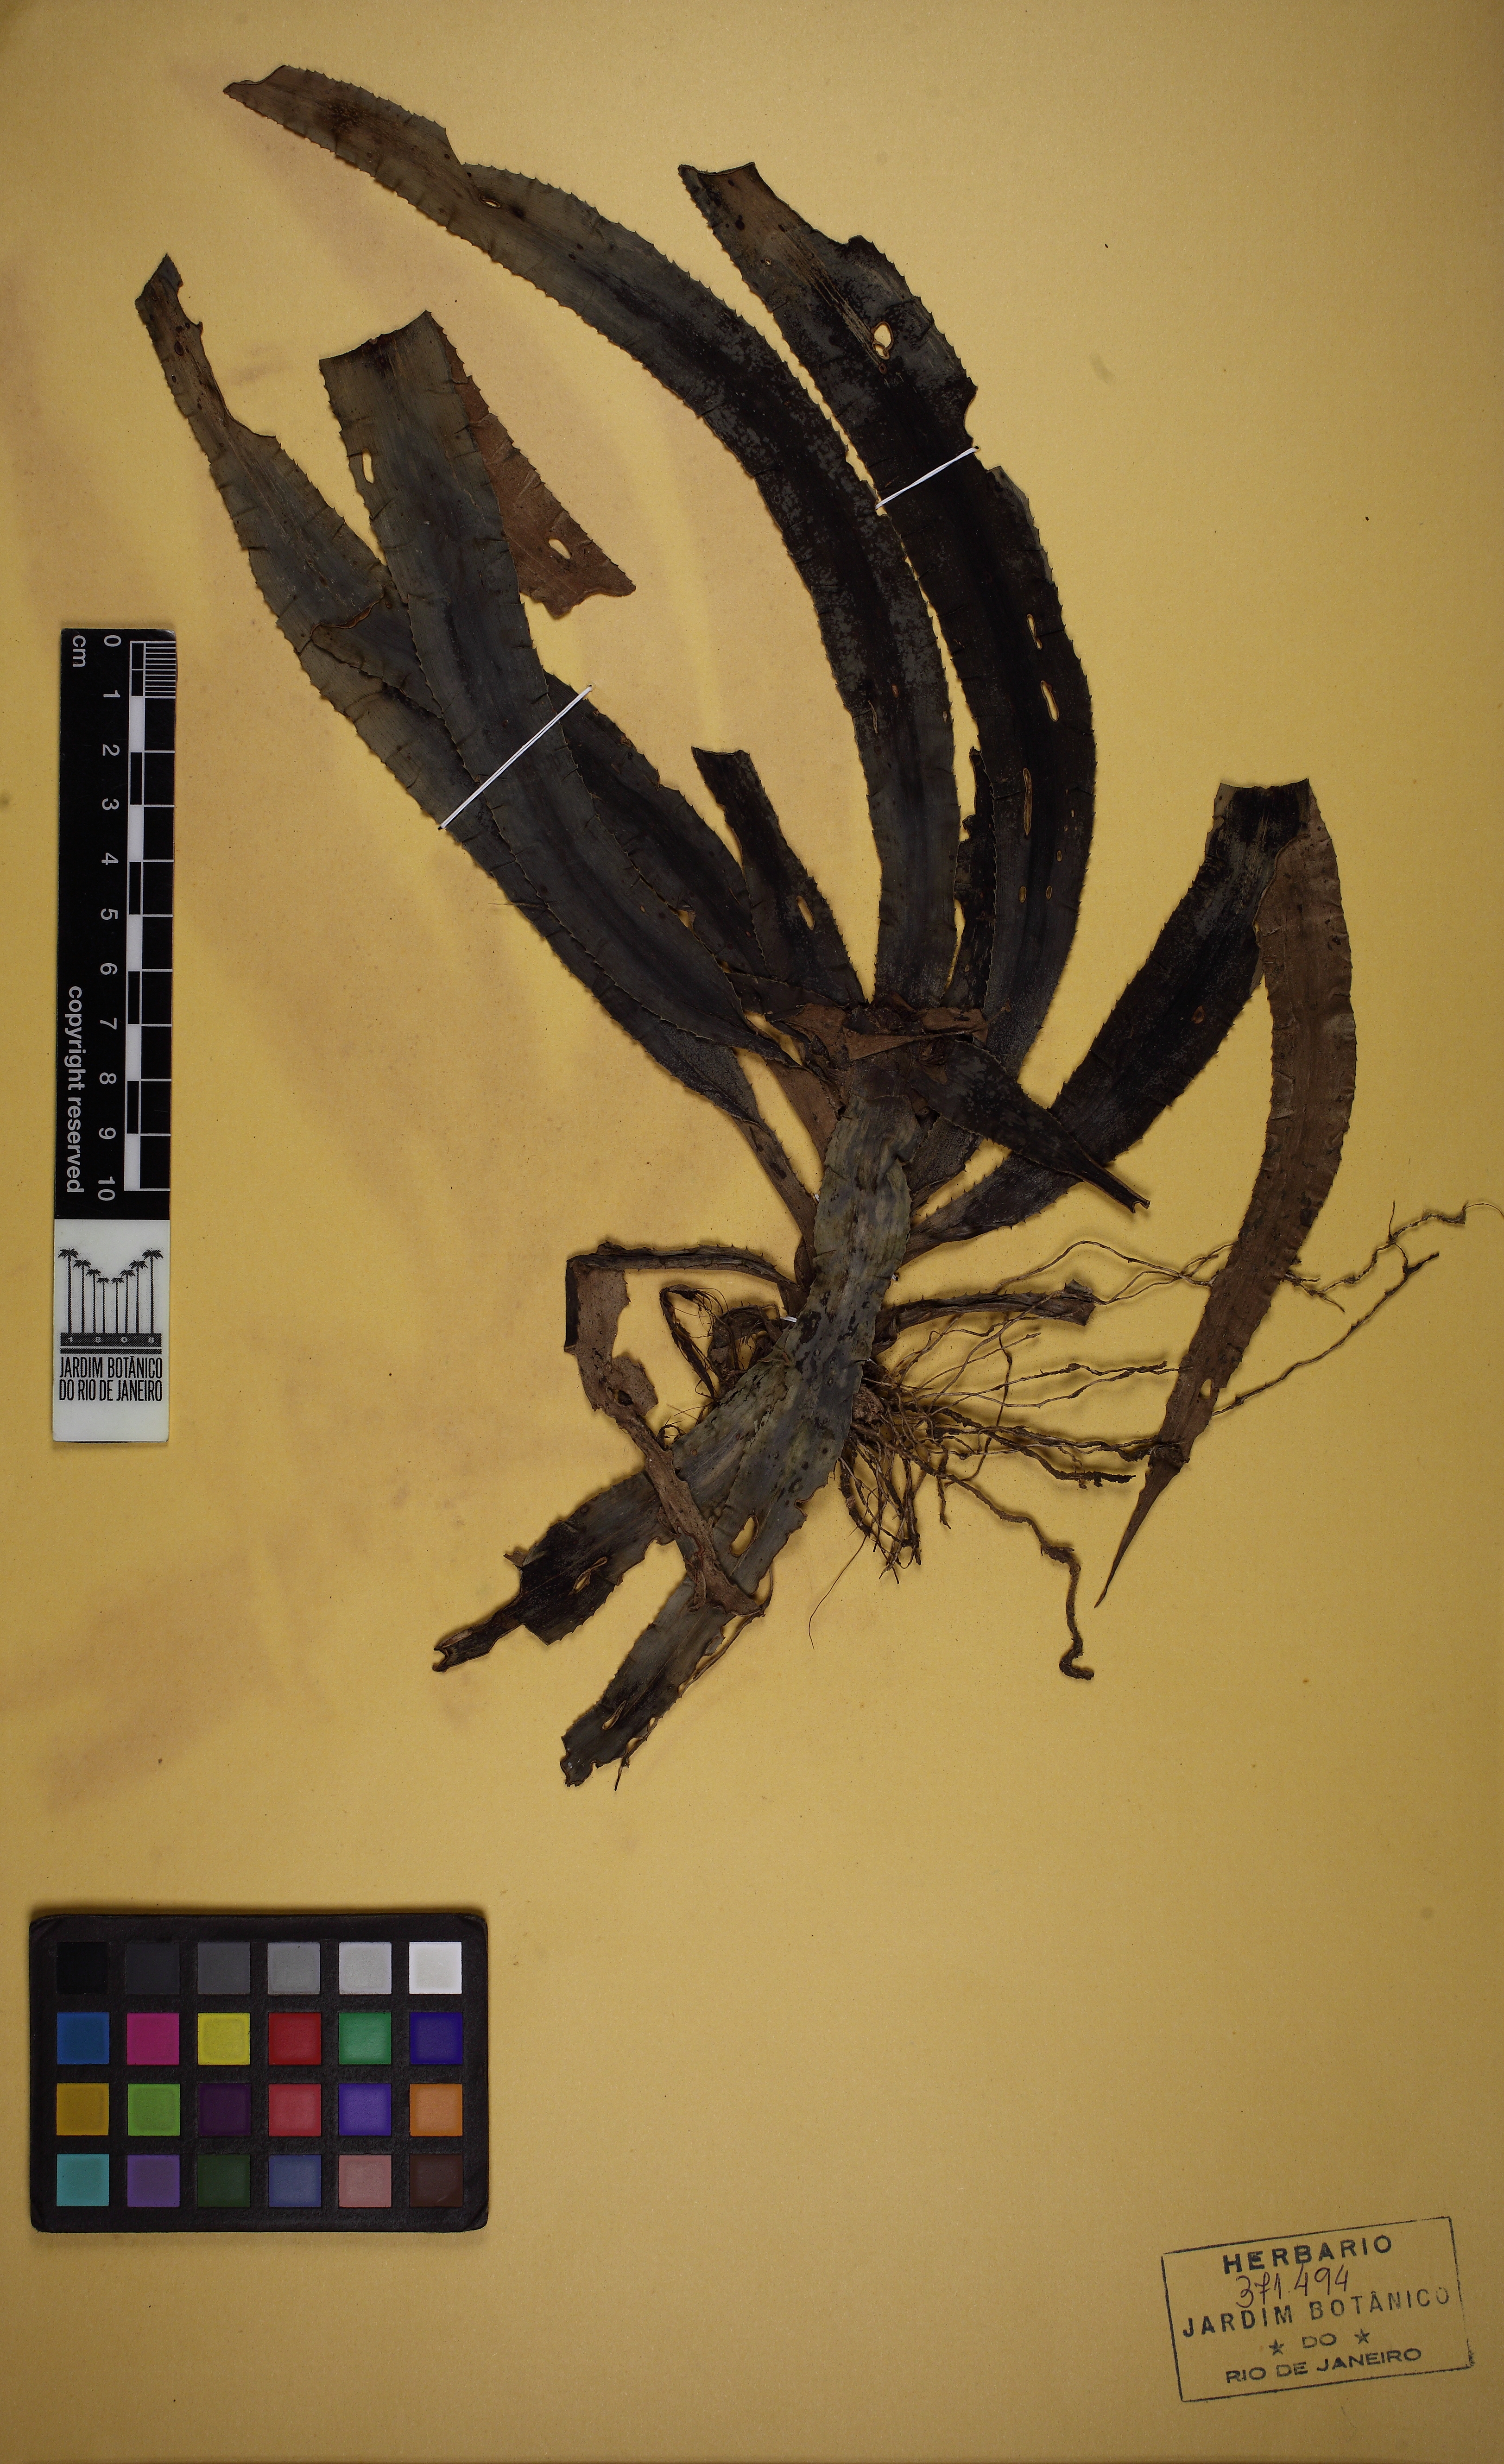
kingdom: Plantae
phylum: Tracheophyta
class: Liliopsida
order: Poales
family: Bromeliaceae
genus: Rokautskyia
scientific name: Rokautskyia odoratissima
